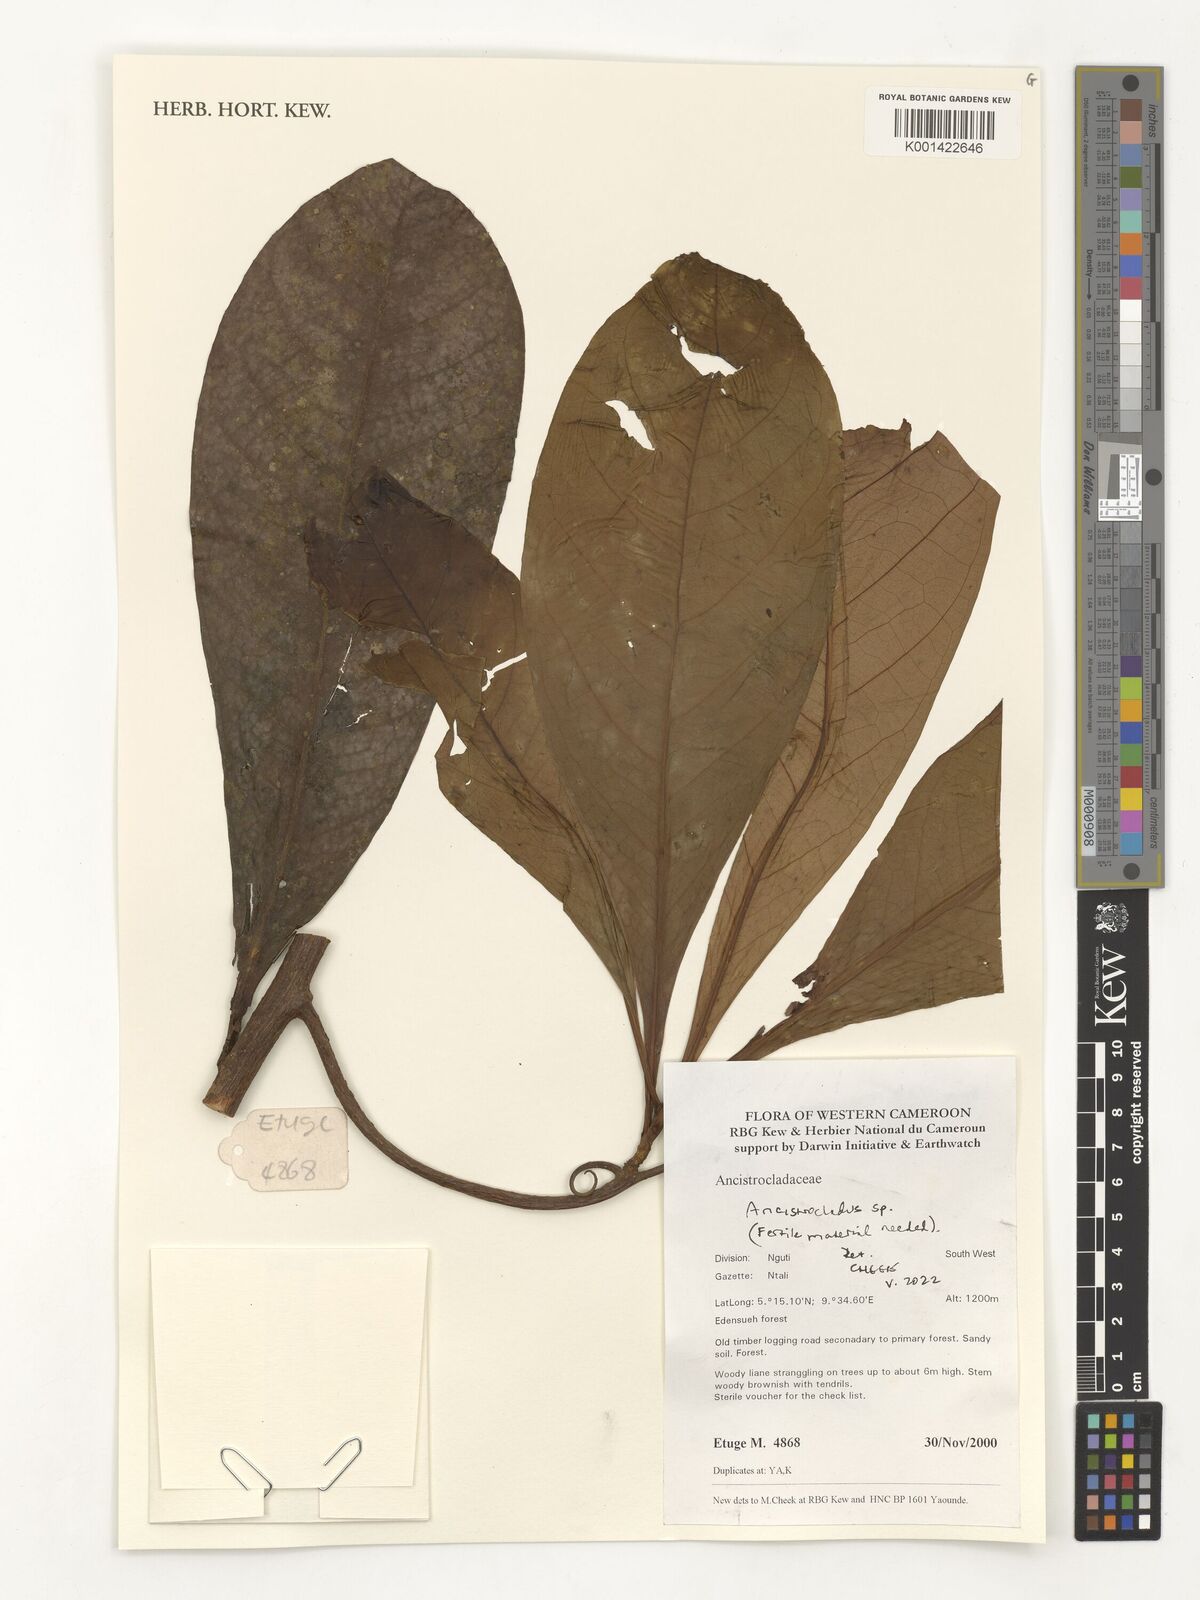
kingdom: Plantae
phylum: Tracheophyta
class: Magnoliopsida
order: Caryophyllales
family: Ancistrocladaceae
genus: Ancistrocladus
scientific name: Ancistrocladus
